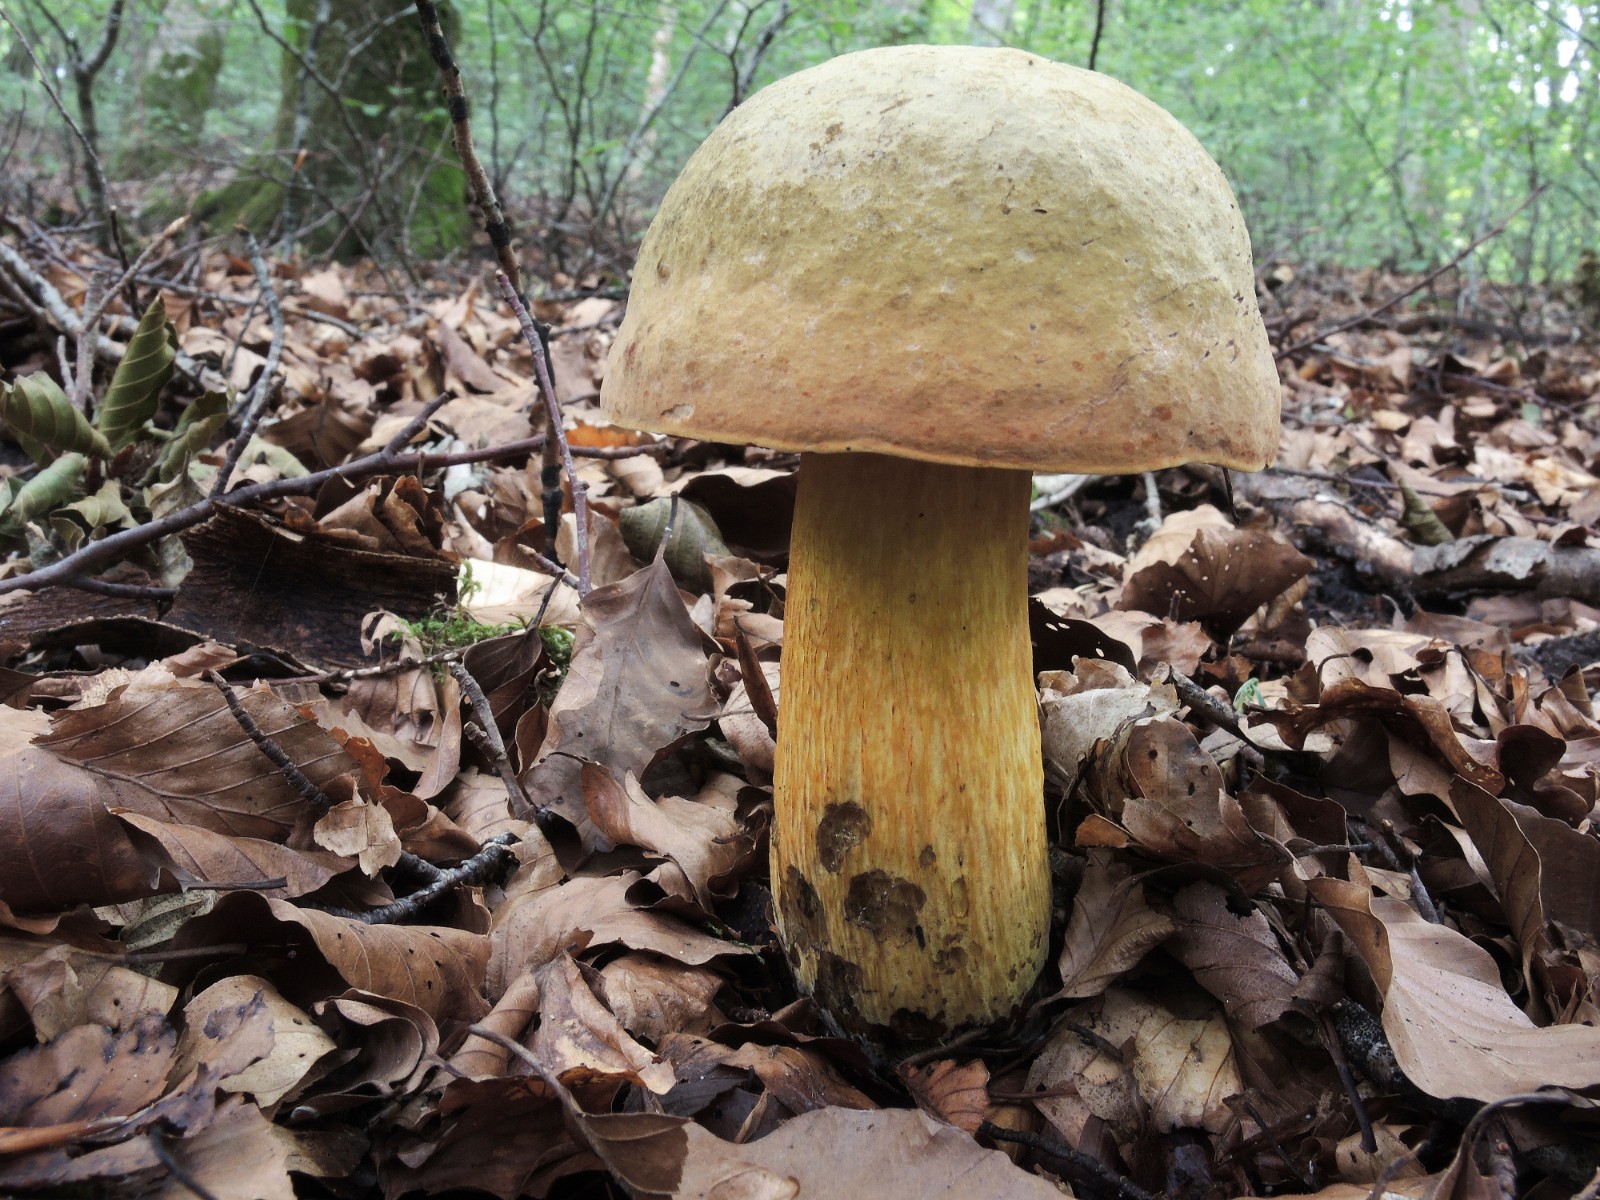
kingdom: Fungi
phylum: Basidiomycota
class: Agaricomycetes
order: Boletales
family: Boletaceae
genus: Suillellus
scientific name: Suillellus luridus
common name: netstokket indigorørhat
